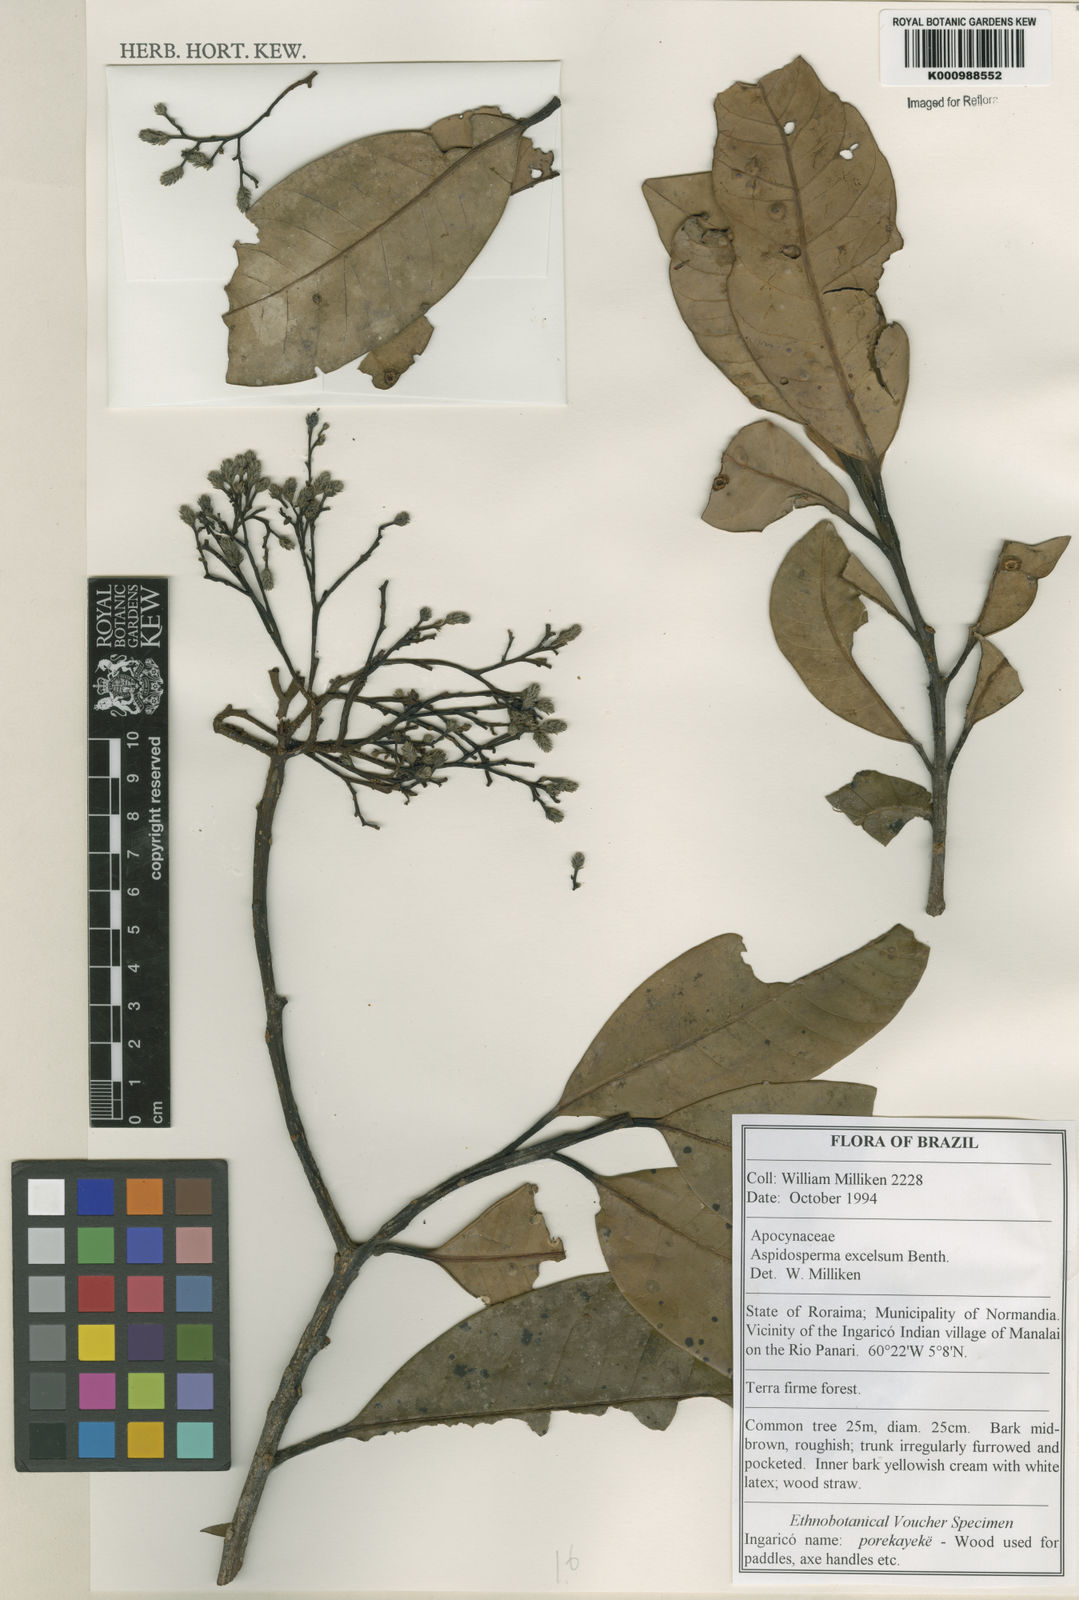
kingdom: Plantae
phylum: Tracheophyta
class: Magnoliopsida
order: Gentianales
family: Apocynaceae
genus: Aspidosperma
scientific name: Aspidosperma excelsum
